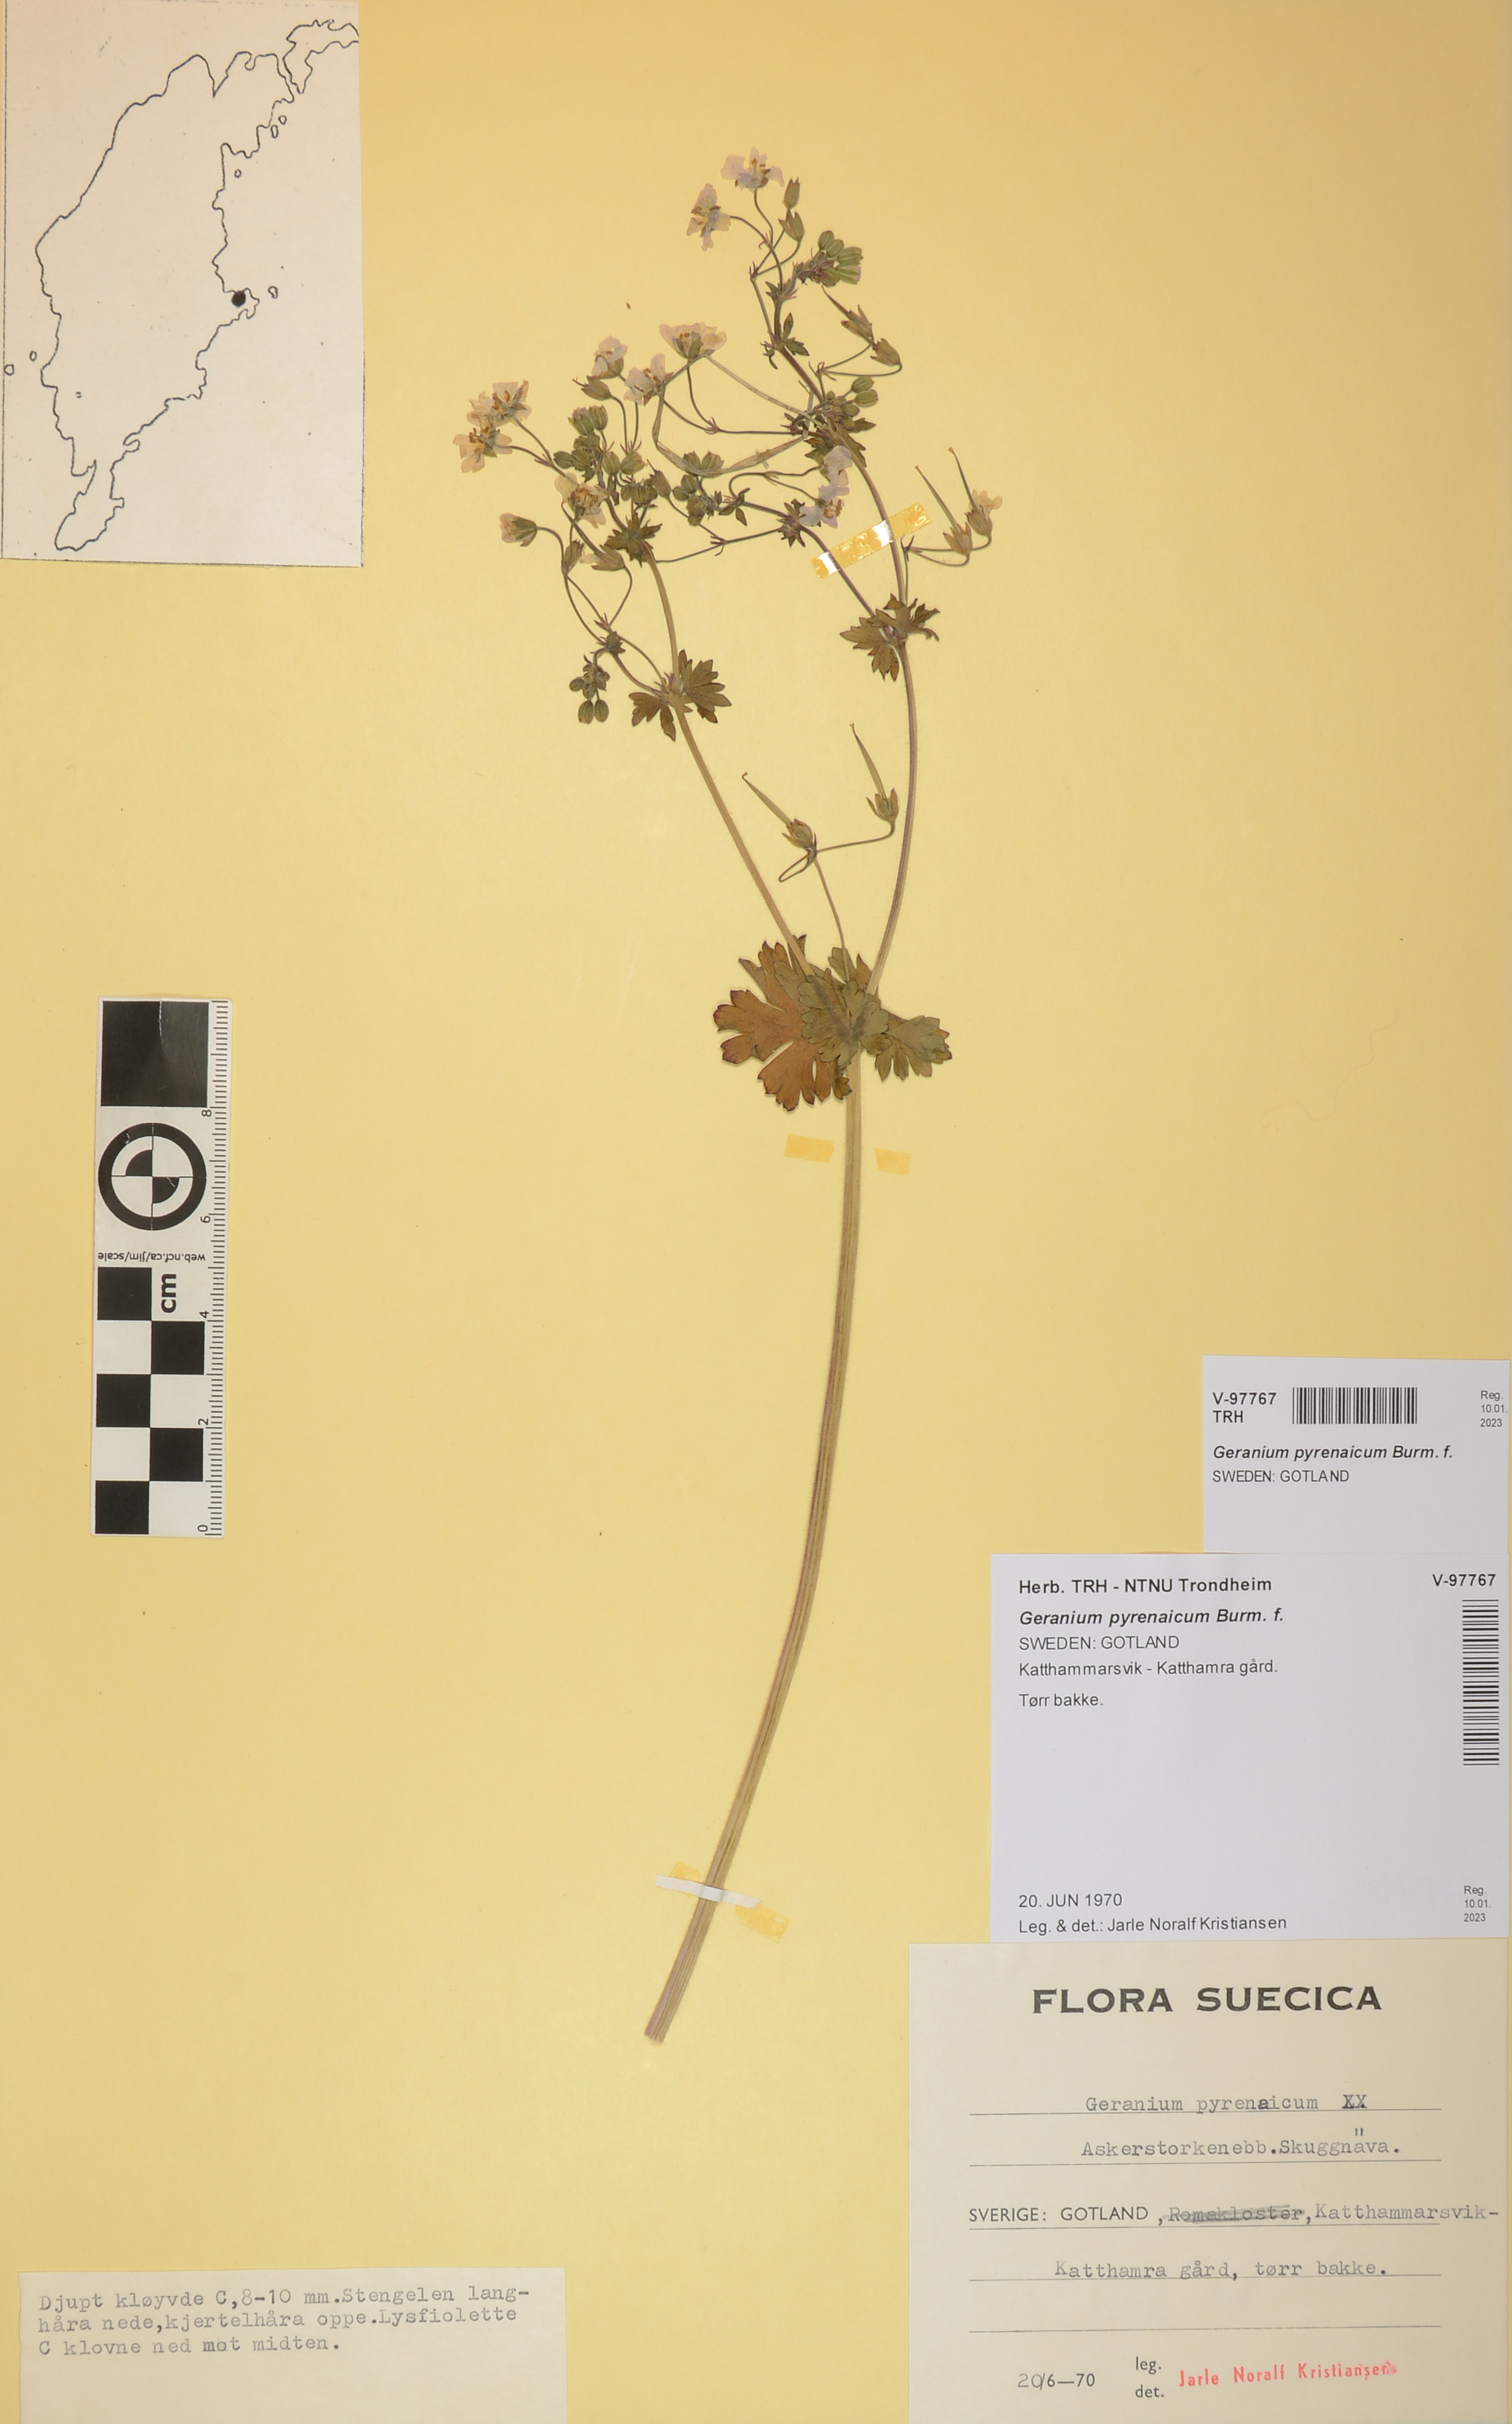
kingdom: Plantae
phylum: Tracheophyta
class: Magnoliopsida
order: Geraniales
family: Geraniaceae
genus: Geranium
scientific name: Geranium pyrenaicum
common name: Hedgerow crane's-bill
